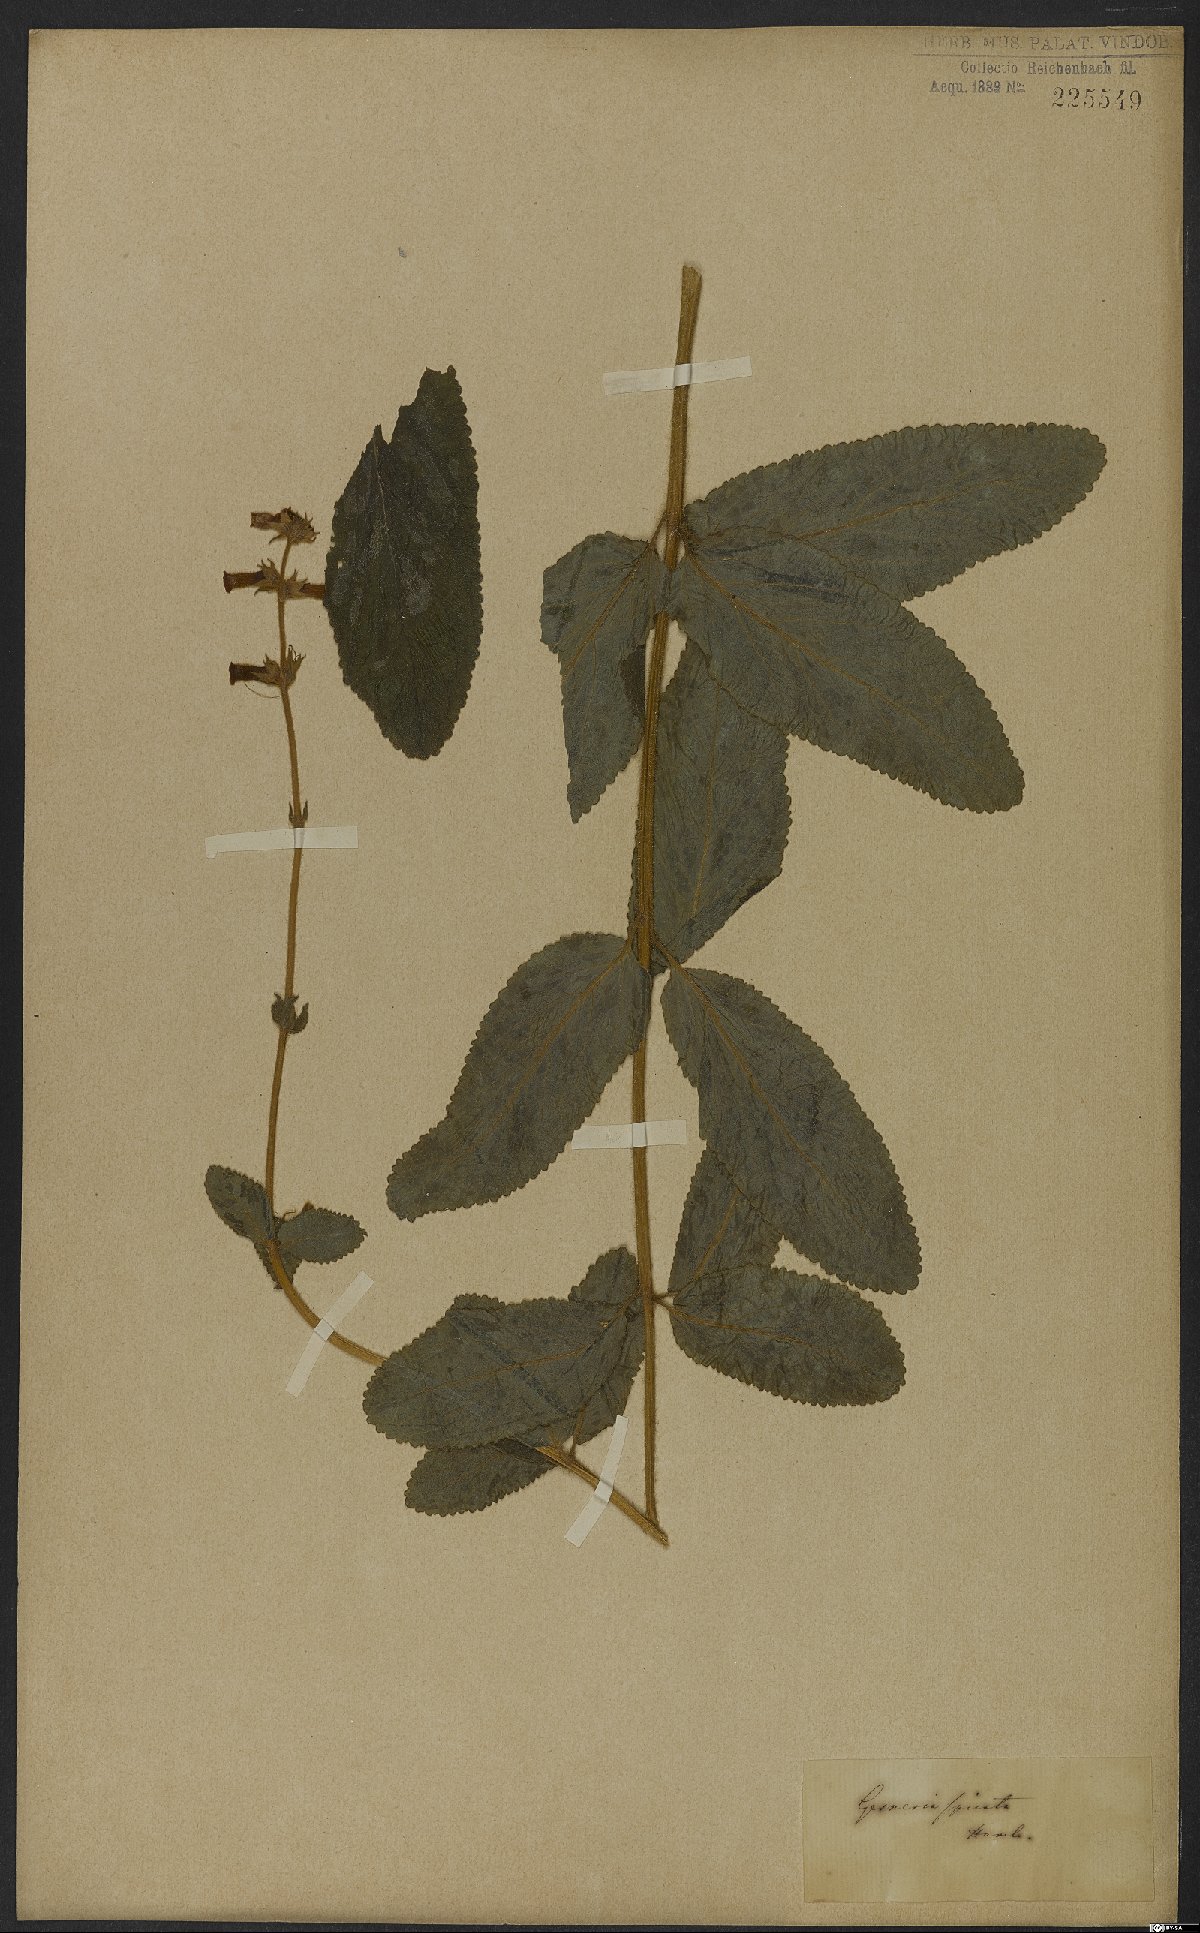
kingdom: Plantae
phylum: Tracheophyta
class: Magnoliopsida
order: Lamiales
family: Gesneriaceae
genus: Sinningia
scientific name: Sinningia allagophylla
